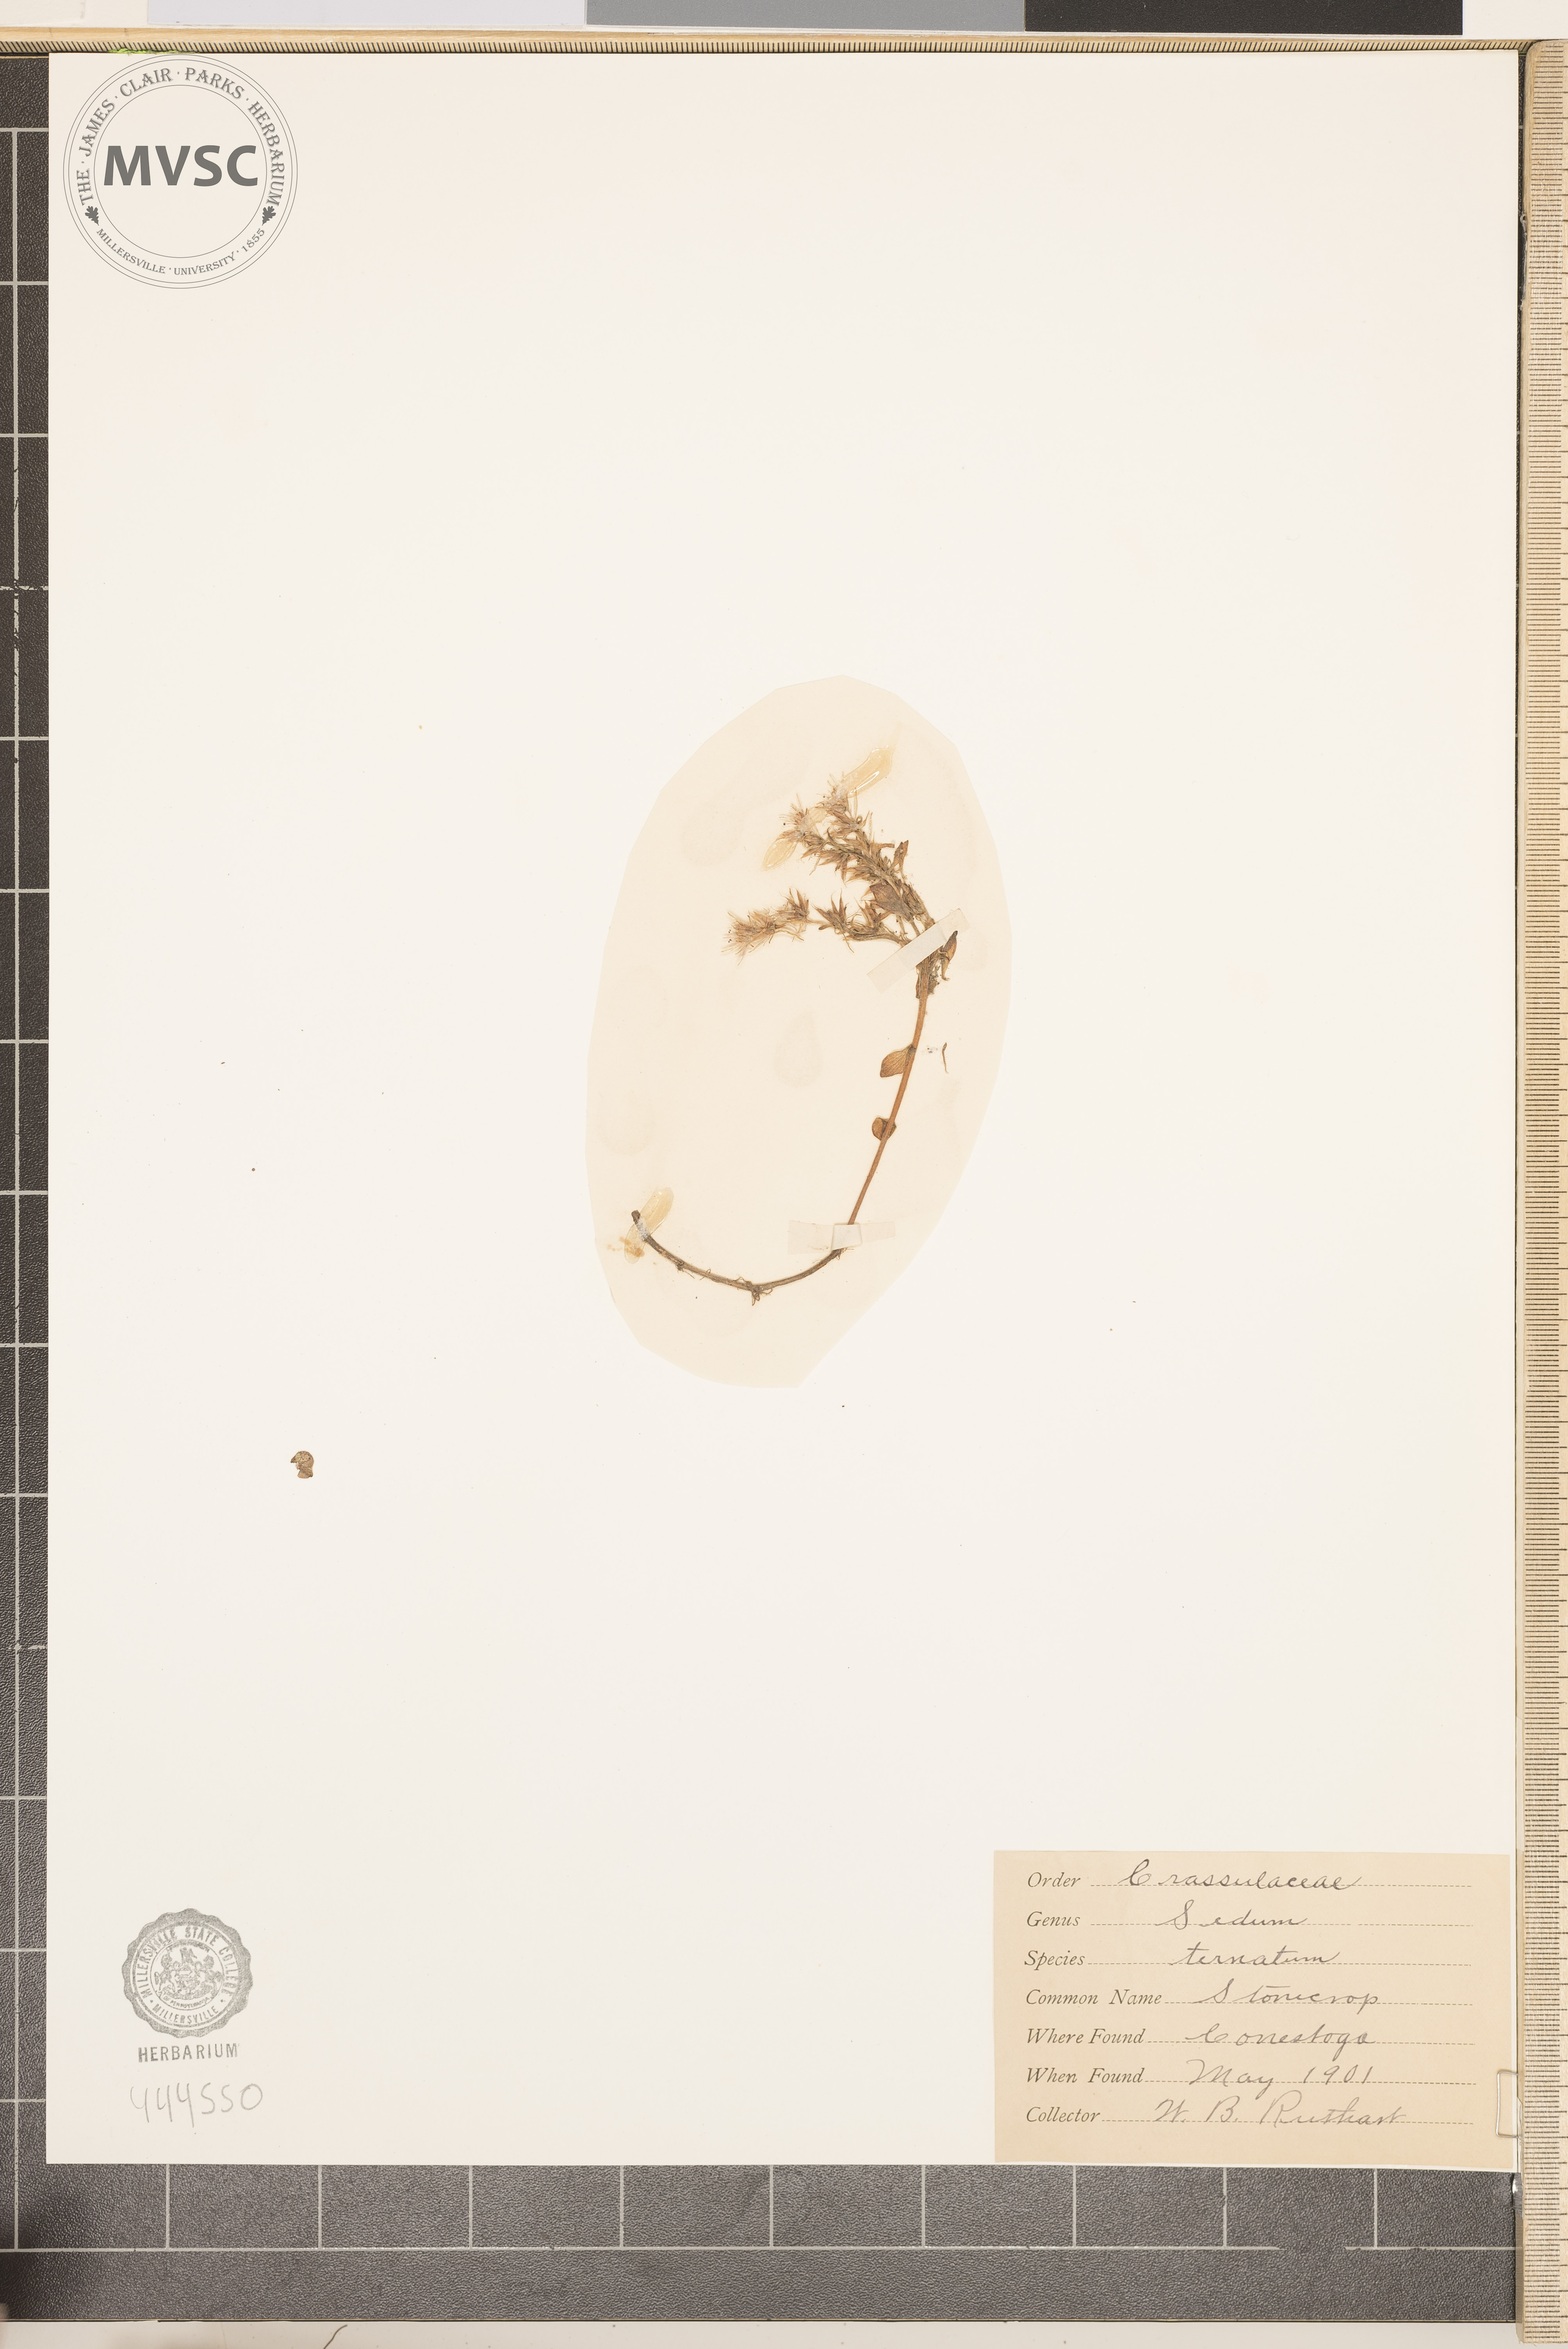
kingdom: Plantae
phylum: Tracheophyta
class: Magnoliopsida
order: Saxifragales
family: Crassulaceae
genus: Sedum
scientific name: Sedum ternatum
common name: Stonecrop
